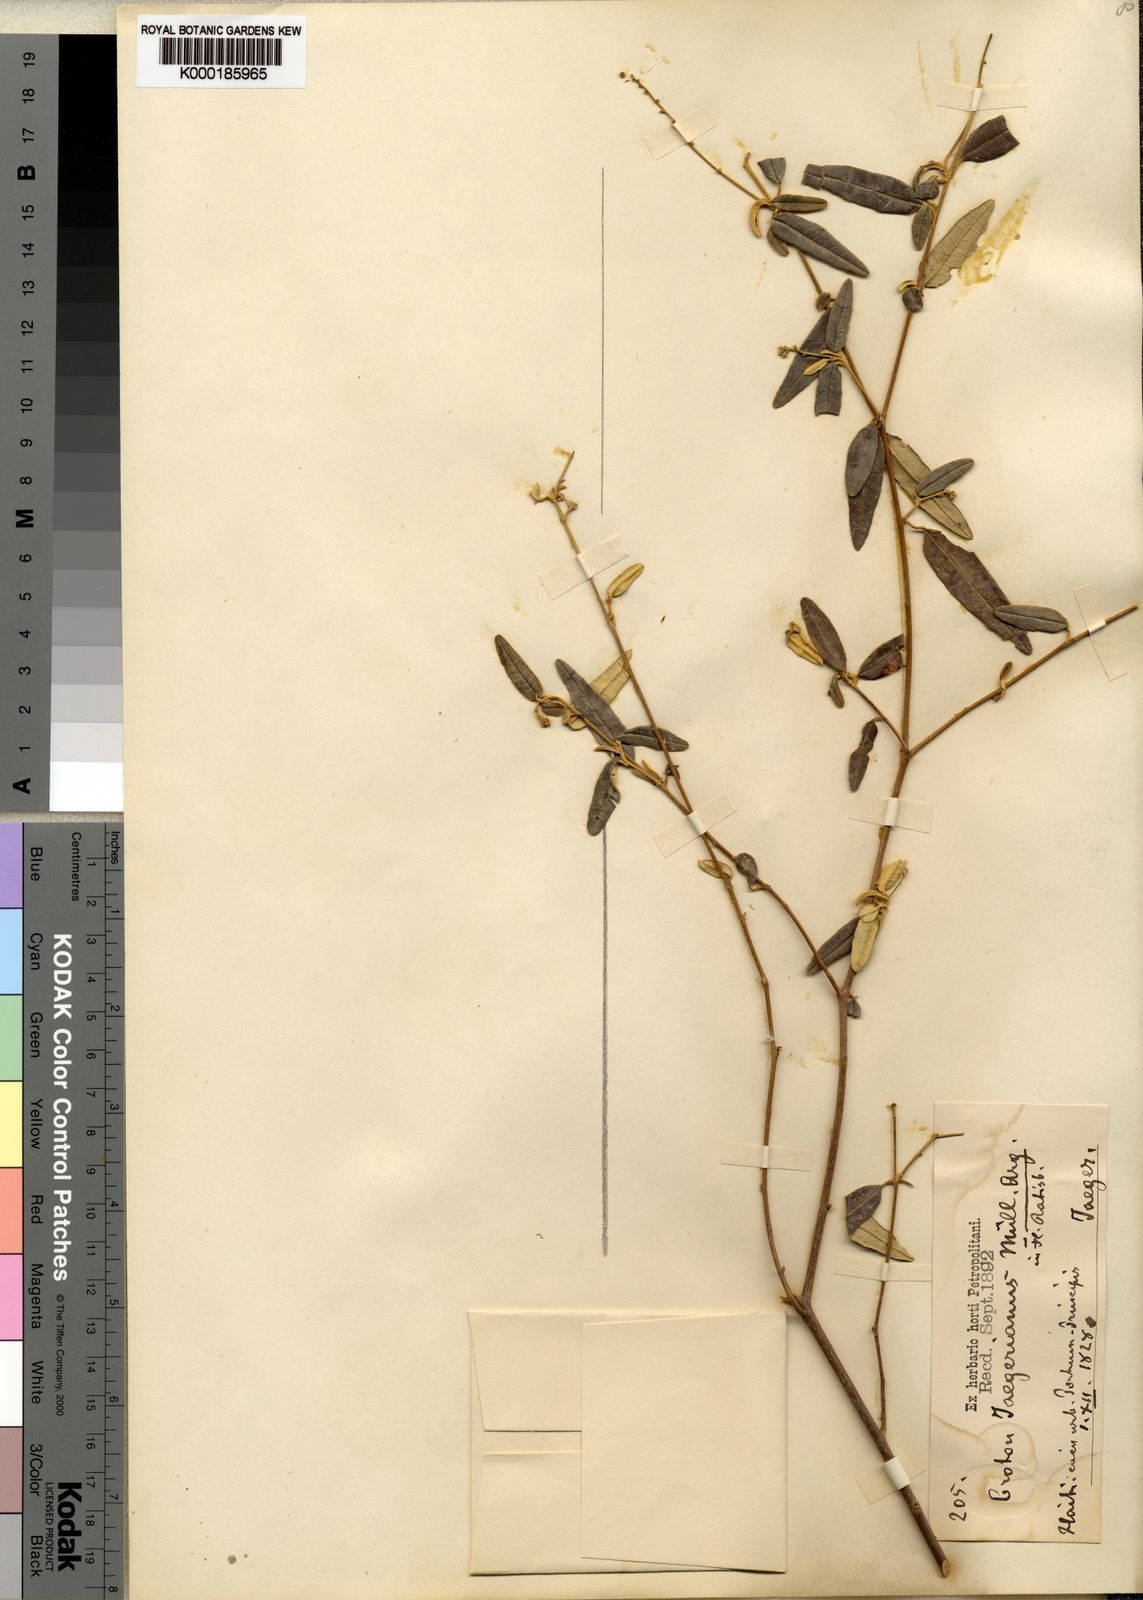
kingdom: Plantae
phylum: Tracheophyta
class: Magnoliopsida
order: Malpighiales
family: Euphorbiaceae
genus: Croton
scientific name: Croton
